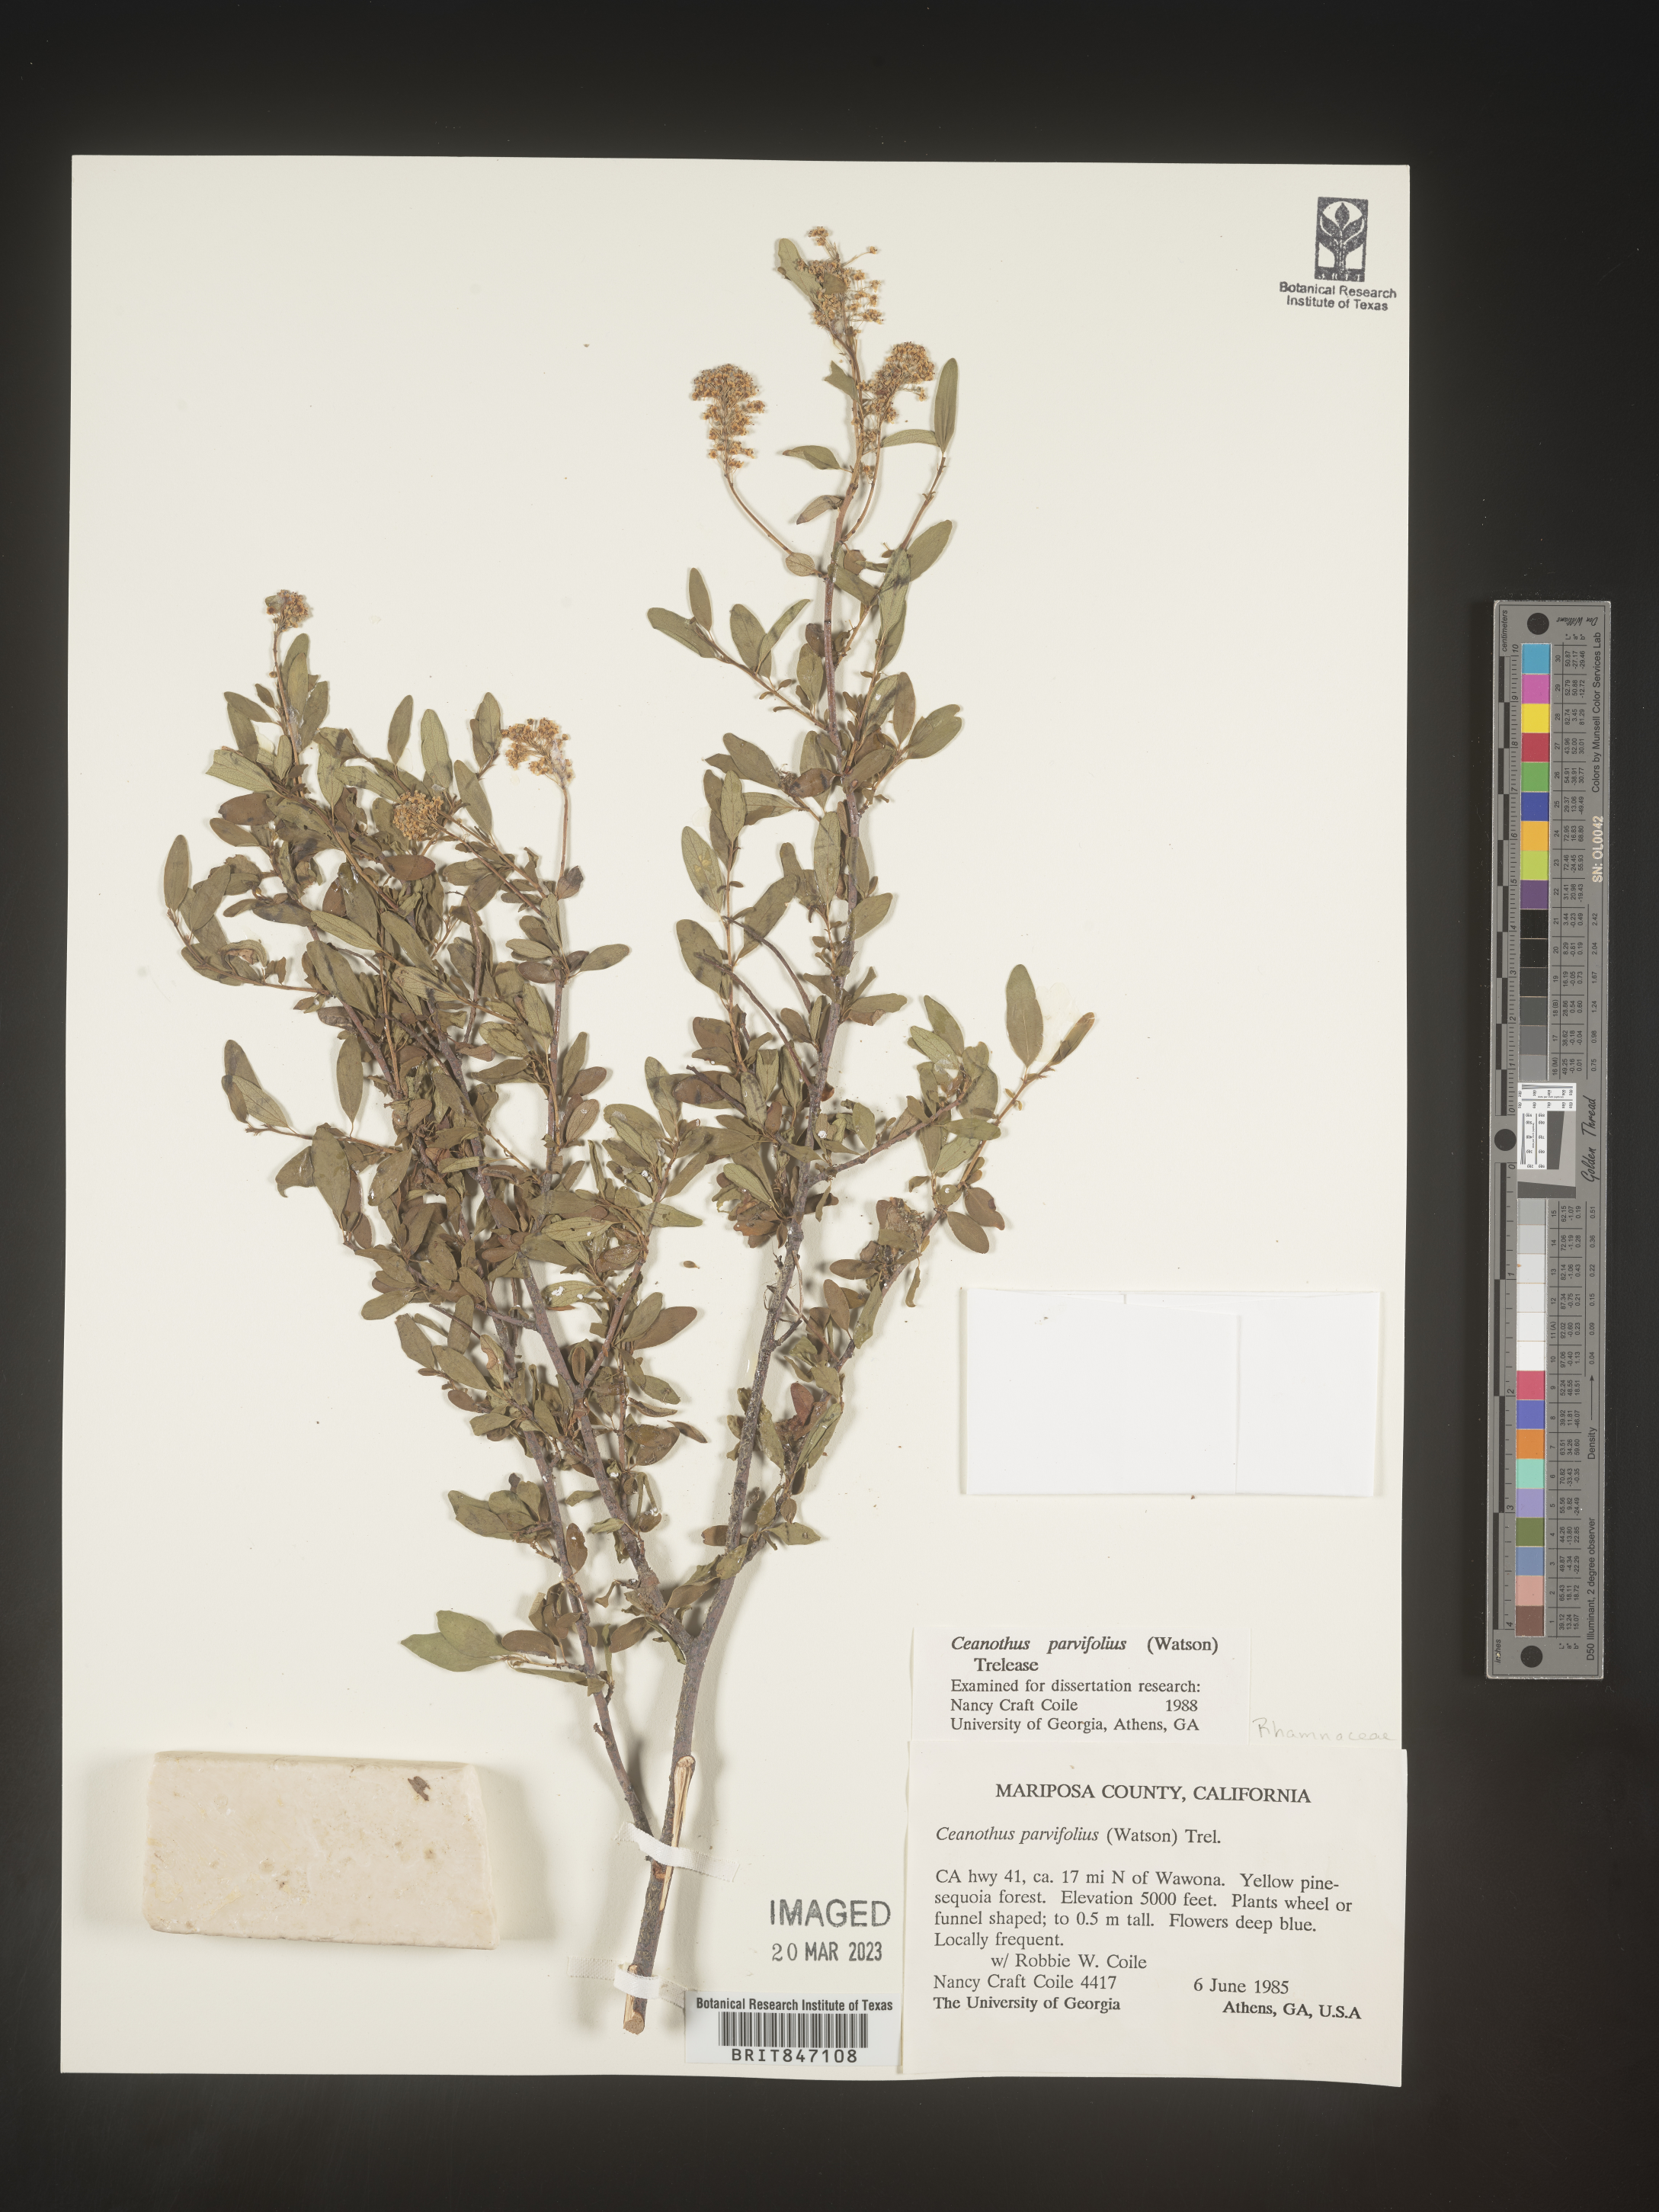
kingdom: Plantae
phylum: Tracheophyta
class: Magnoliopsida
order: Rosales
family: Rhamnaceae
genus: Ceanothus
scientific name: Ceanothus
